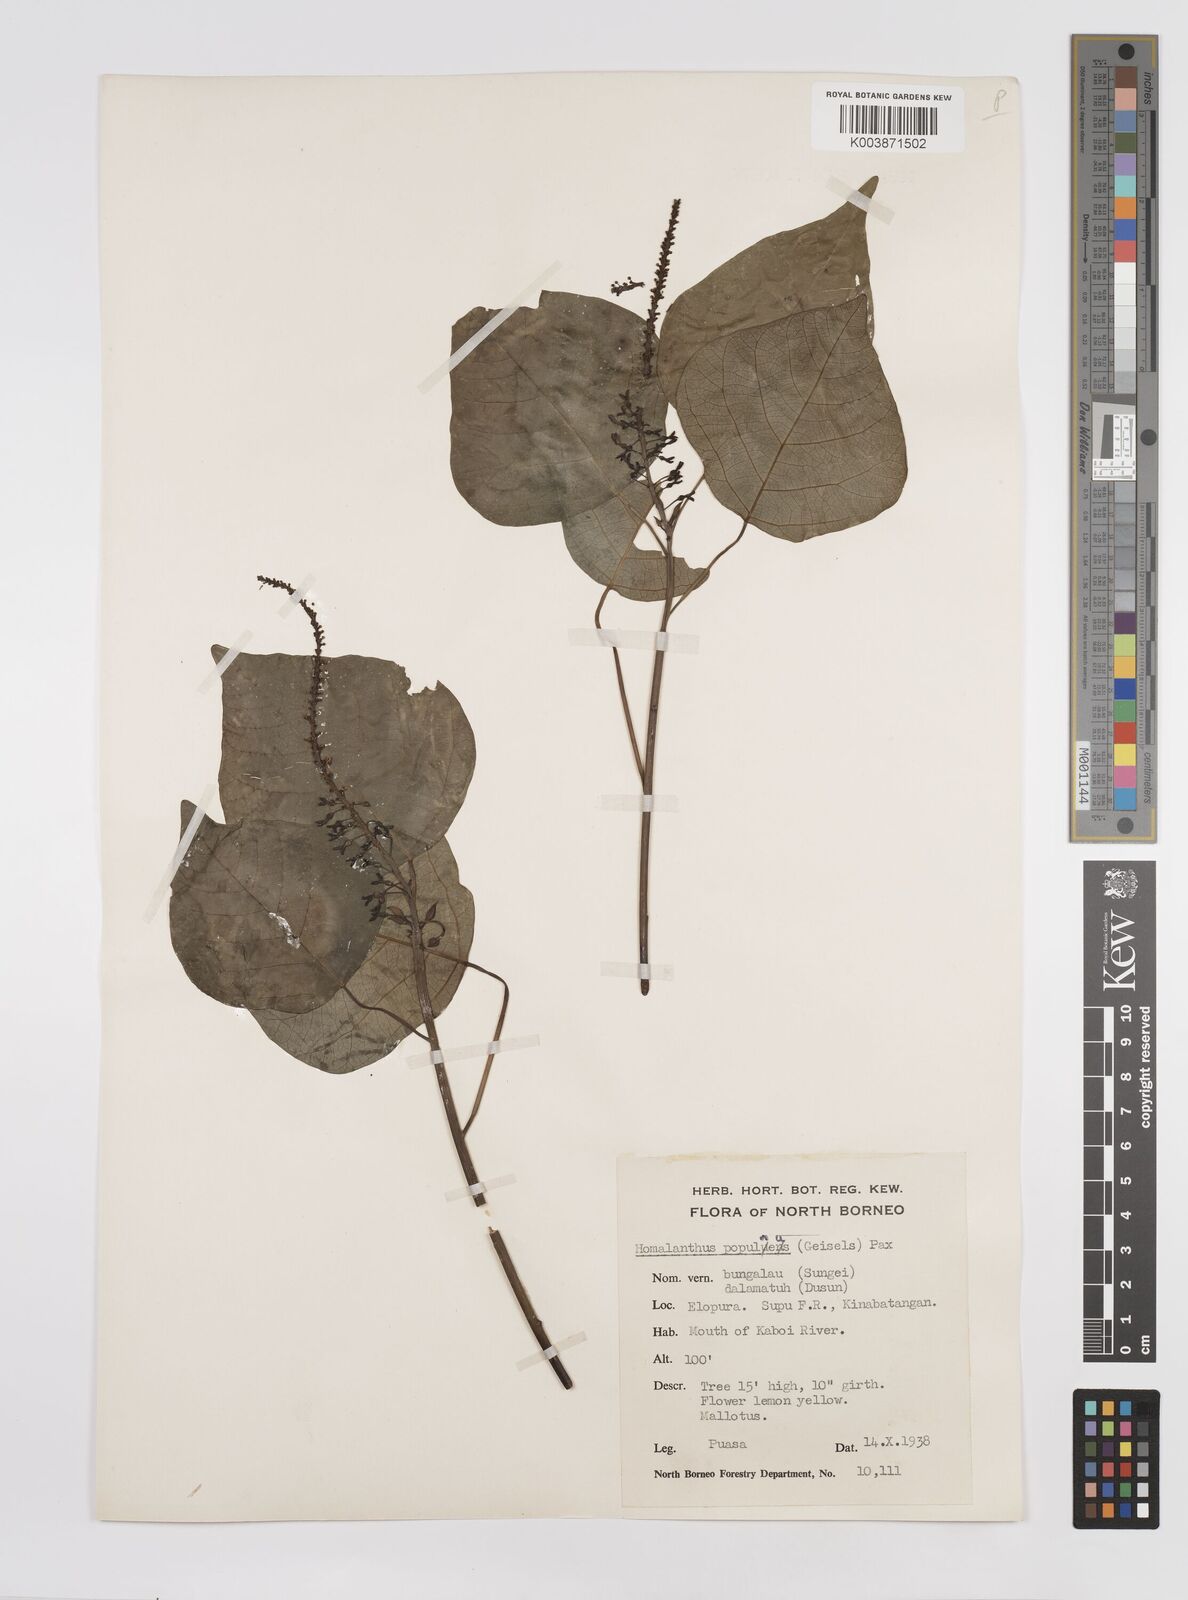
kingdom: Plantae
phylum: Tracheophyta
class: Magnoliopsida
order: Malpighiales
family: Euphorbiaceae
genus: Homalanthus
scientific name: Homalanthus populneus
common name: Spurge
